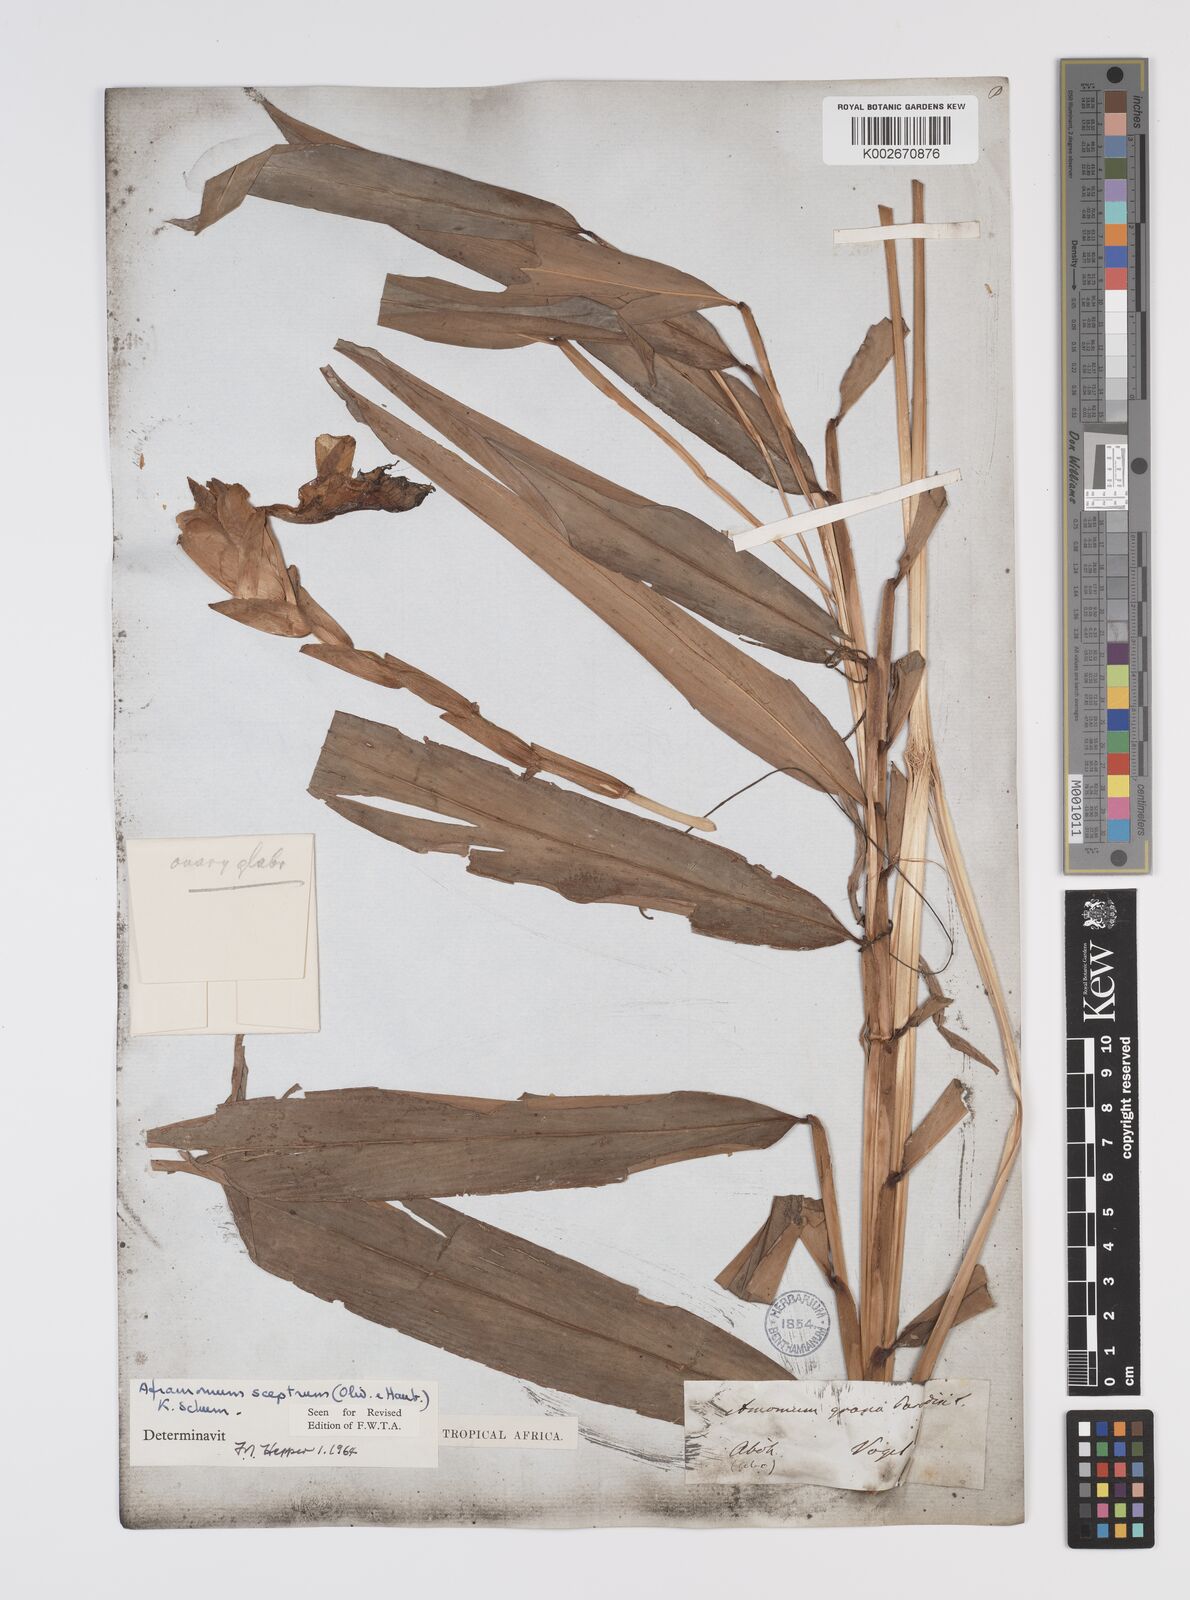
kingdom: Plantae
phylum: Tracheophyta
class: Liliopsida
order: Zingiberales
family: Zingiberaceae
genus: Aframomum
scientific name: Aframomum cereum
